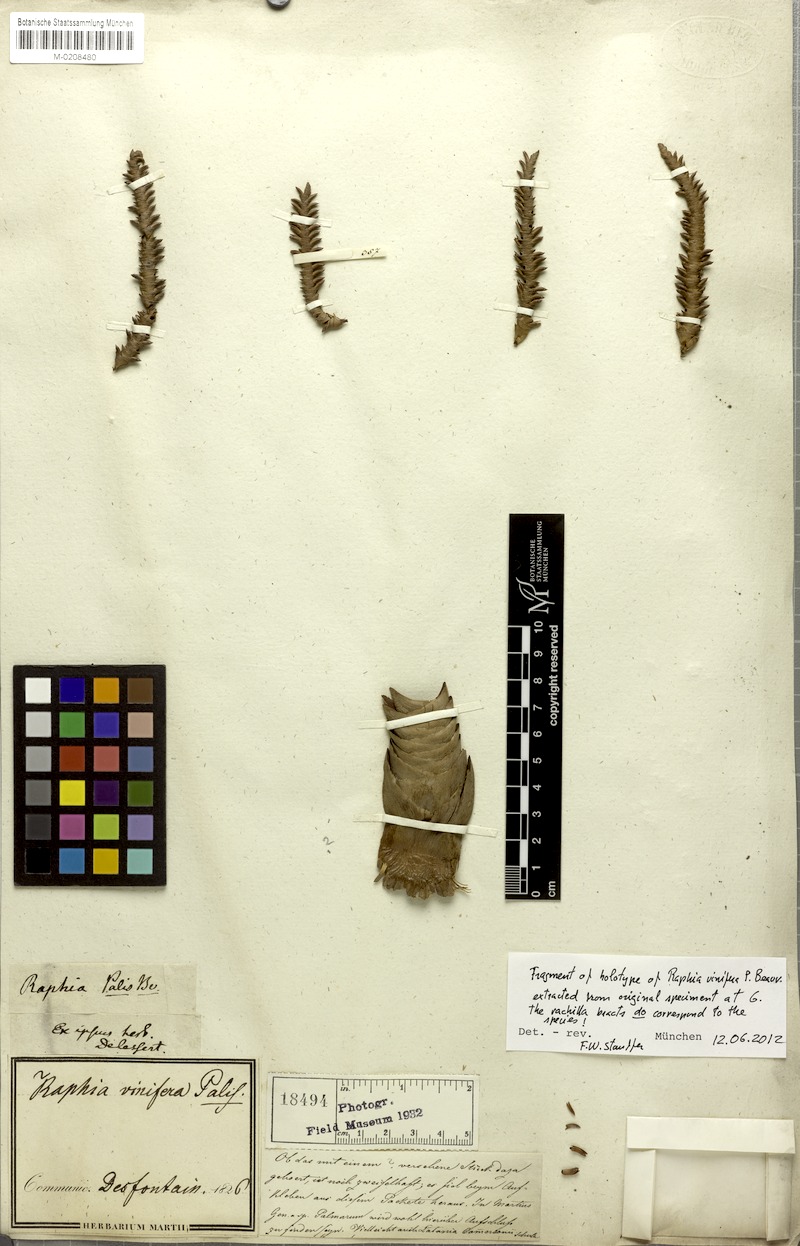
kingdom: Plantae
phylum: Tracheophyta
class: Liliopsida
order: Arecales
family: Arecaceae
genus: Raphia
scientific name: Raphia vinifera
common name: Raphia palm
